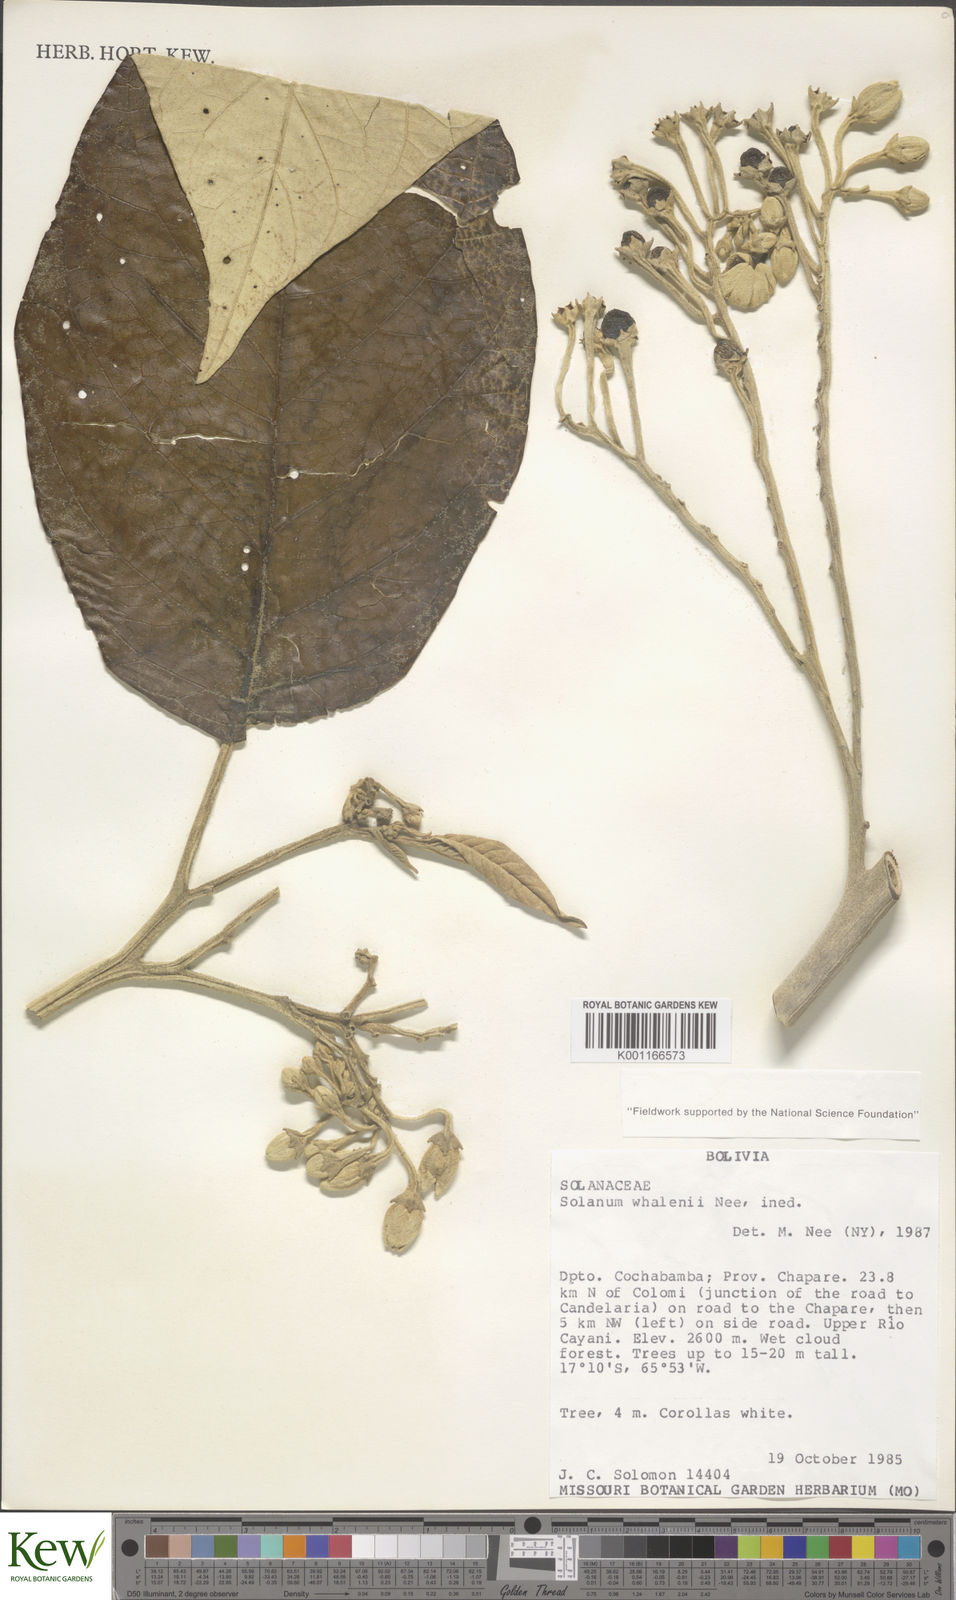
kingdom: Plantae
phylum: Tracheophyta
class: Magnoliopsida
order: Solanales
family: Solanaceae
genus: Solanum
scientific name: Solanum whalenii
